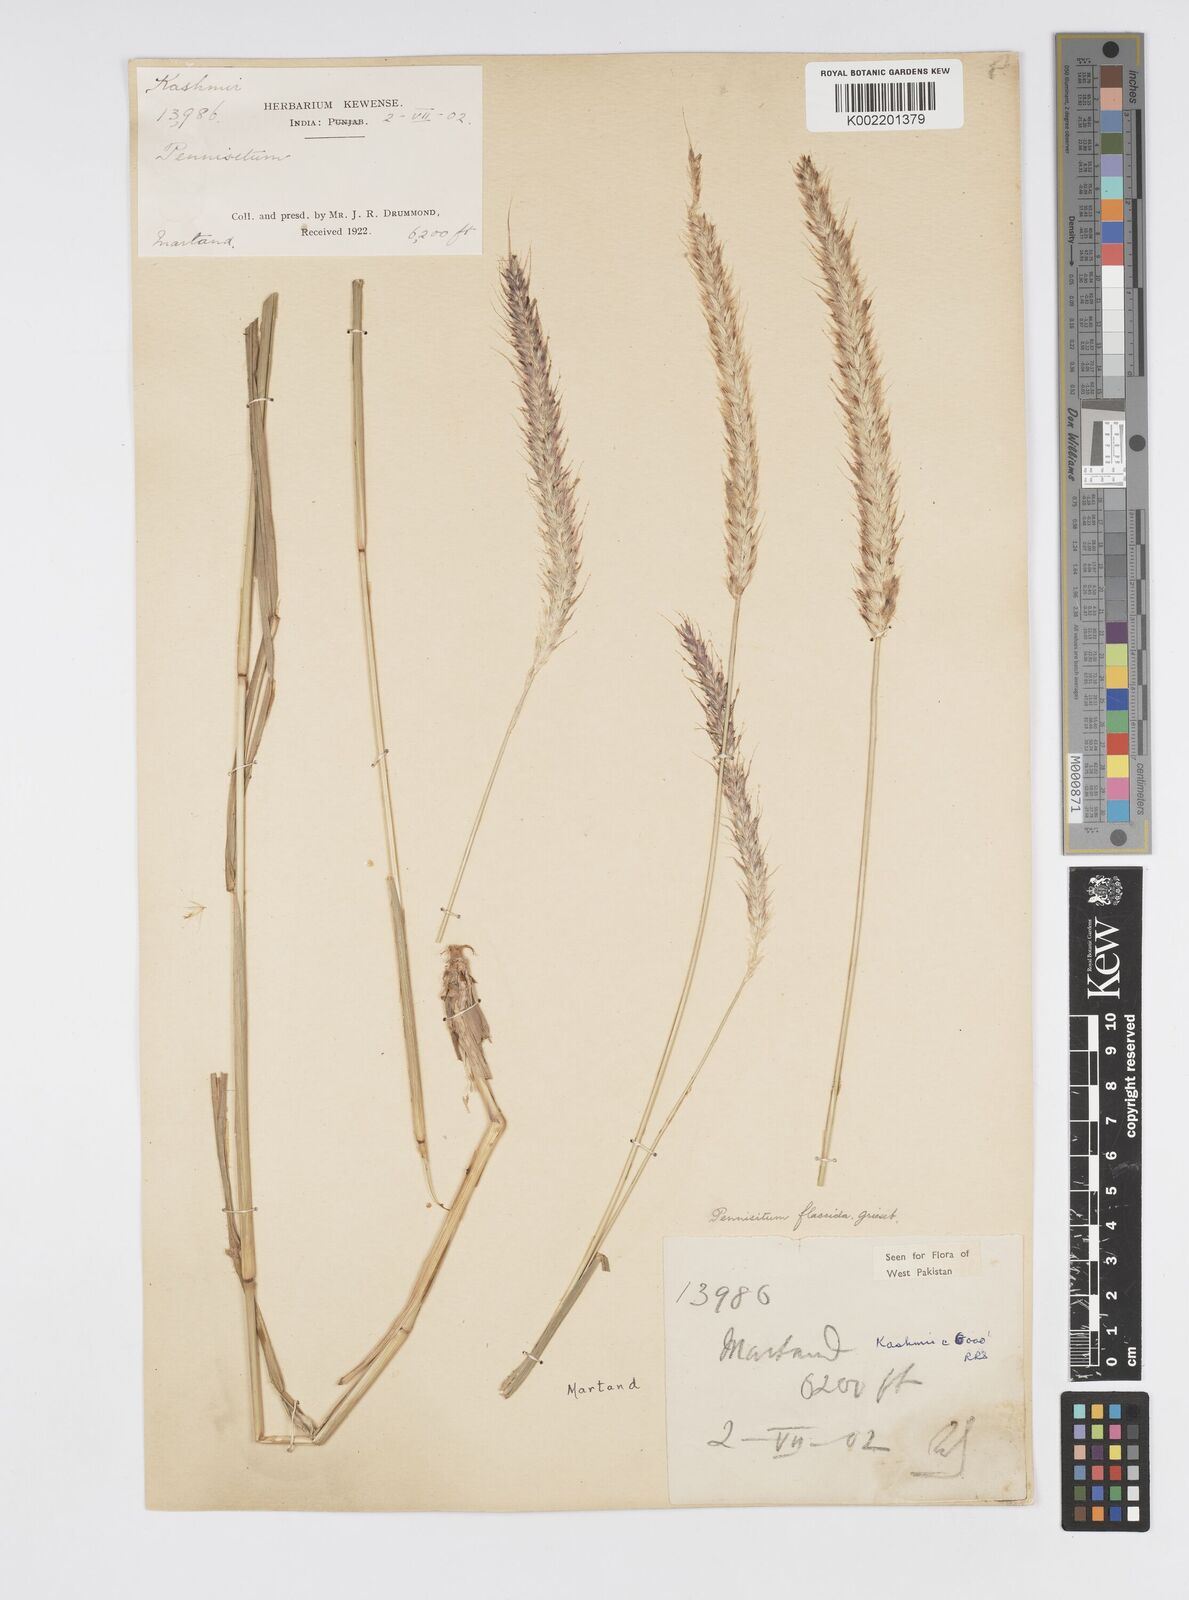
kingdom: Plantae
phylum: Tracheophyta
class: Liliopsida
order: Poales
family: Poaceae
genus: Cenchrus
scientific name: Cenchrus flaccidus
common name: Flaccid grass
